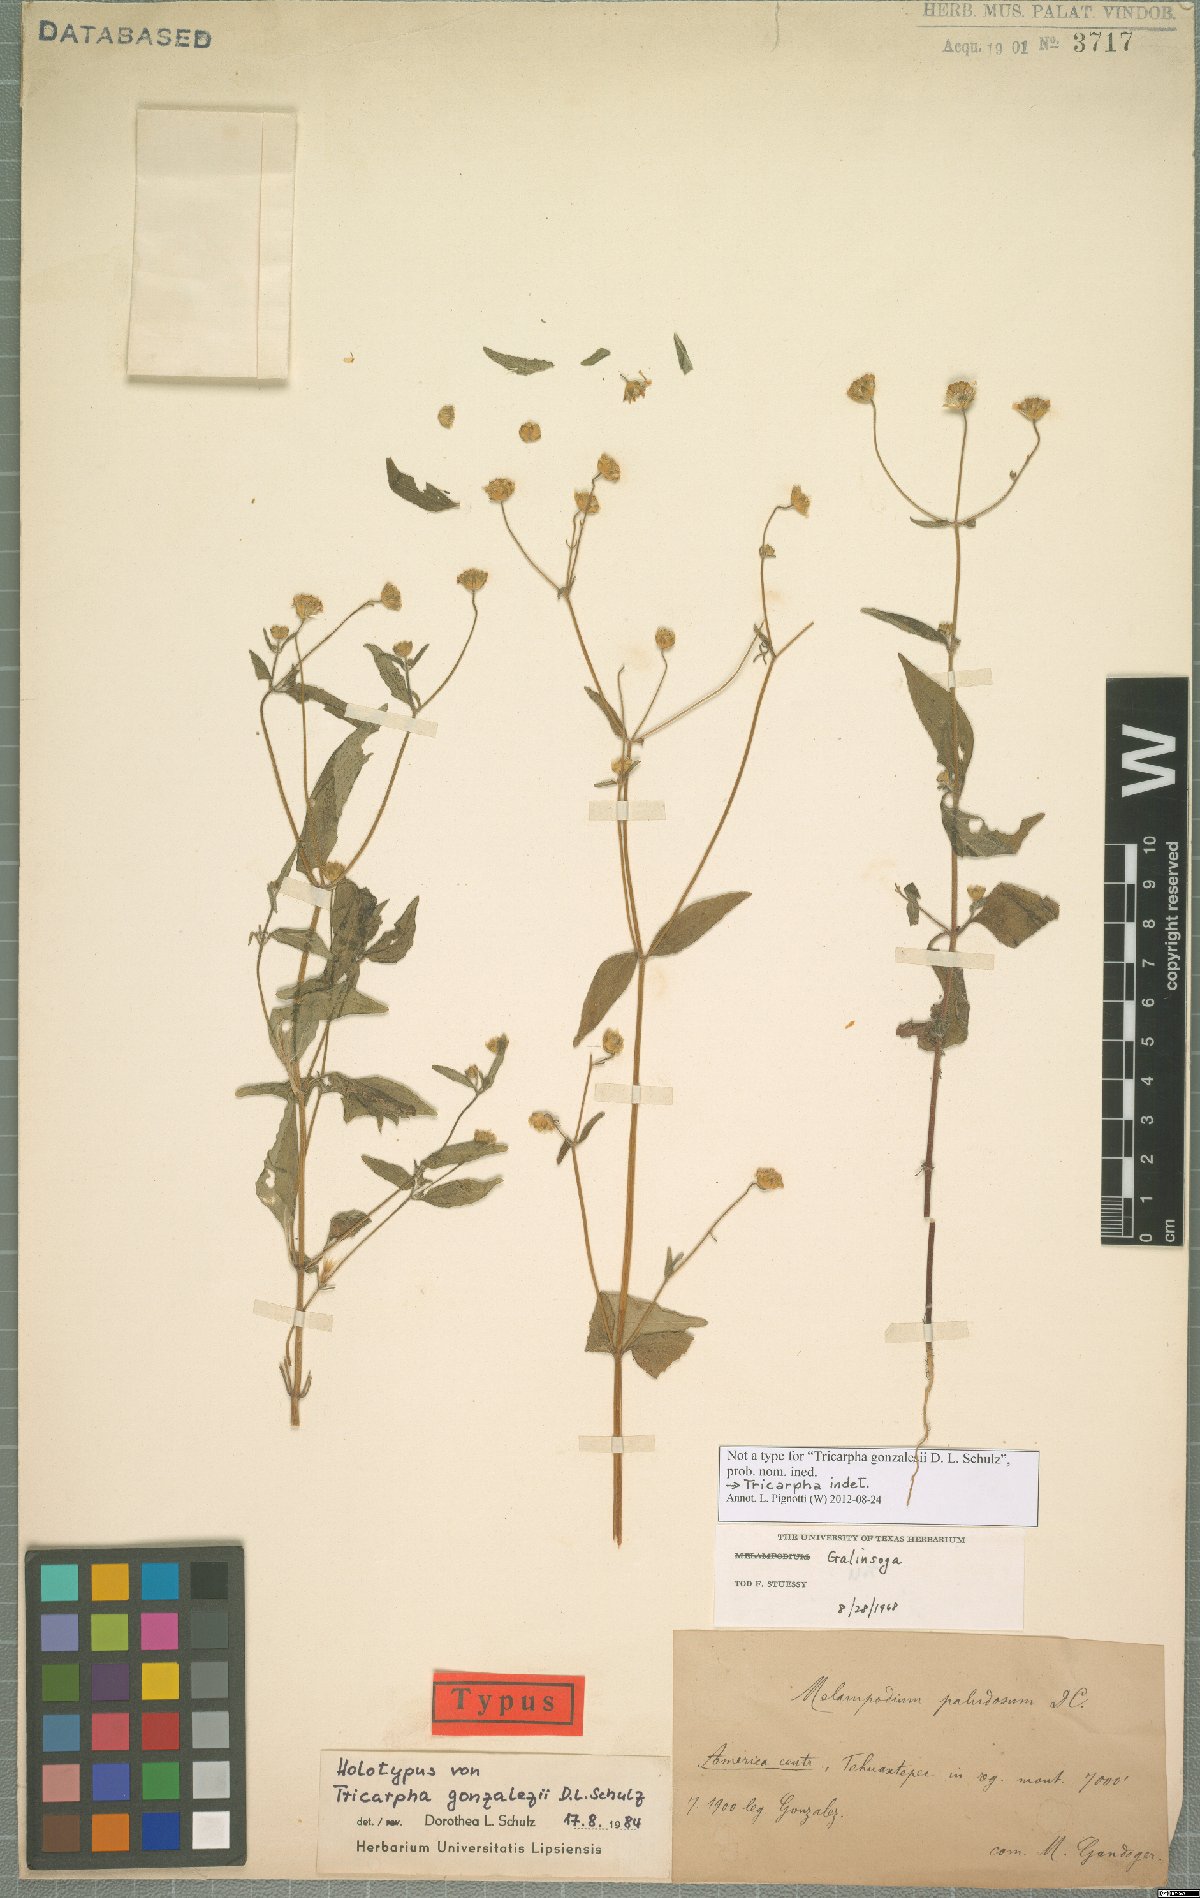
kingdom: Plantae
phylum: Tracheophyta
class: Magnoliopsida
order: Asterales
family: Asteraceae
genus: Sabazia
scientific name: Sabazia
